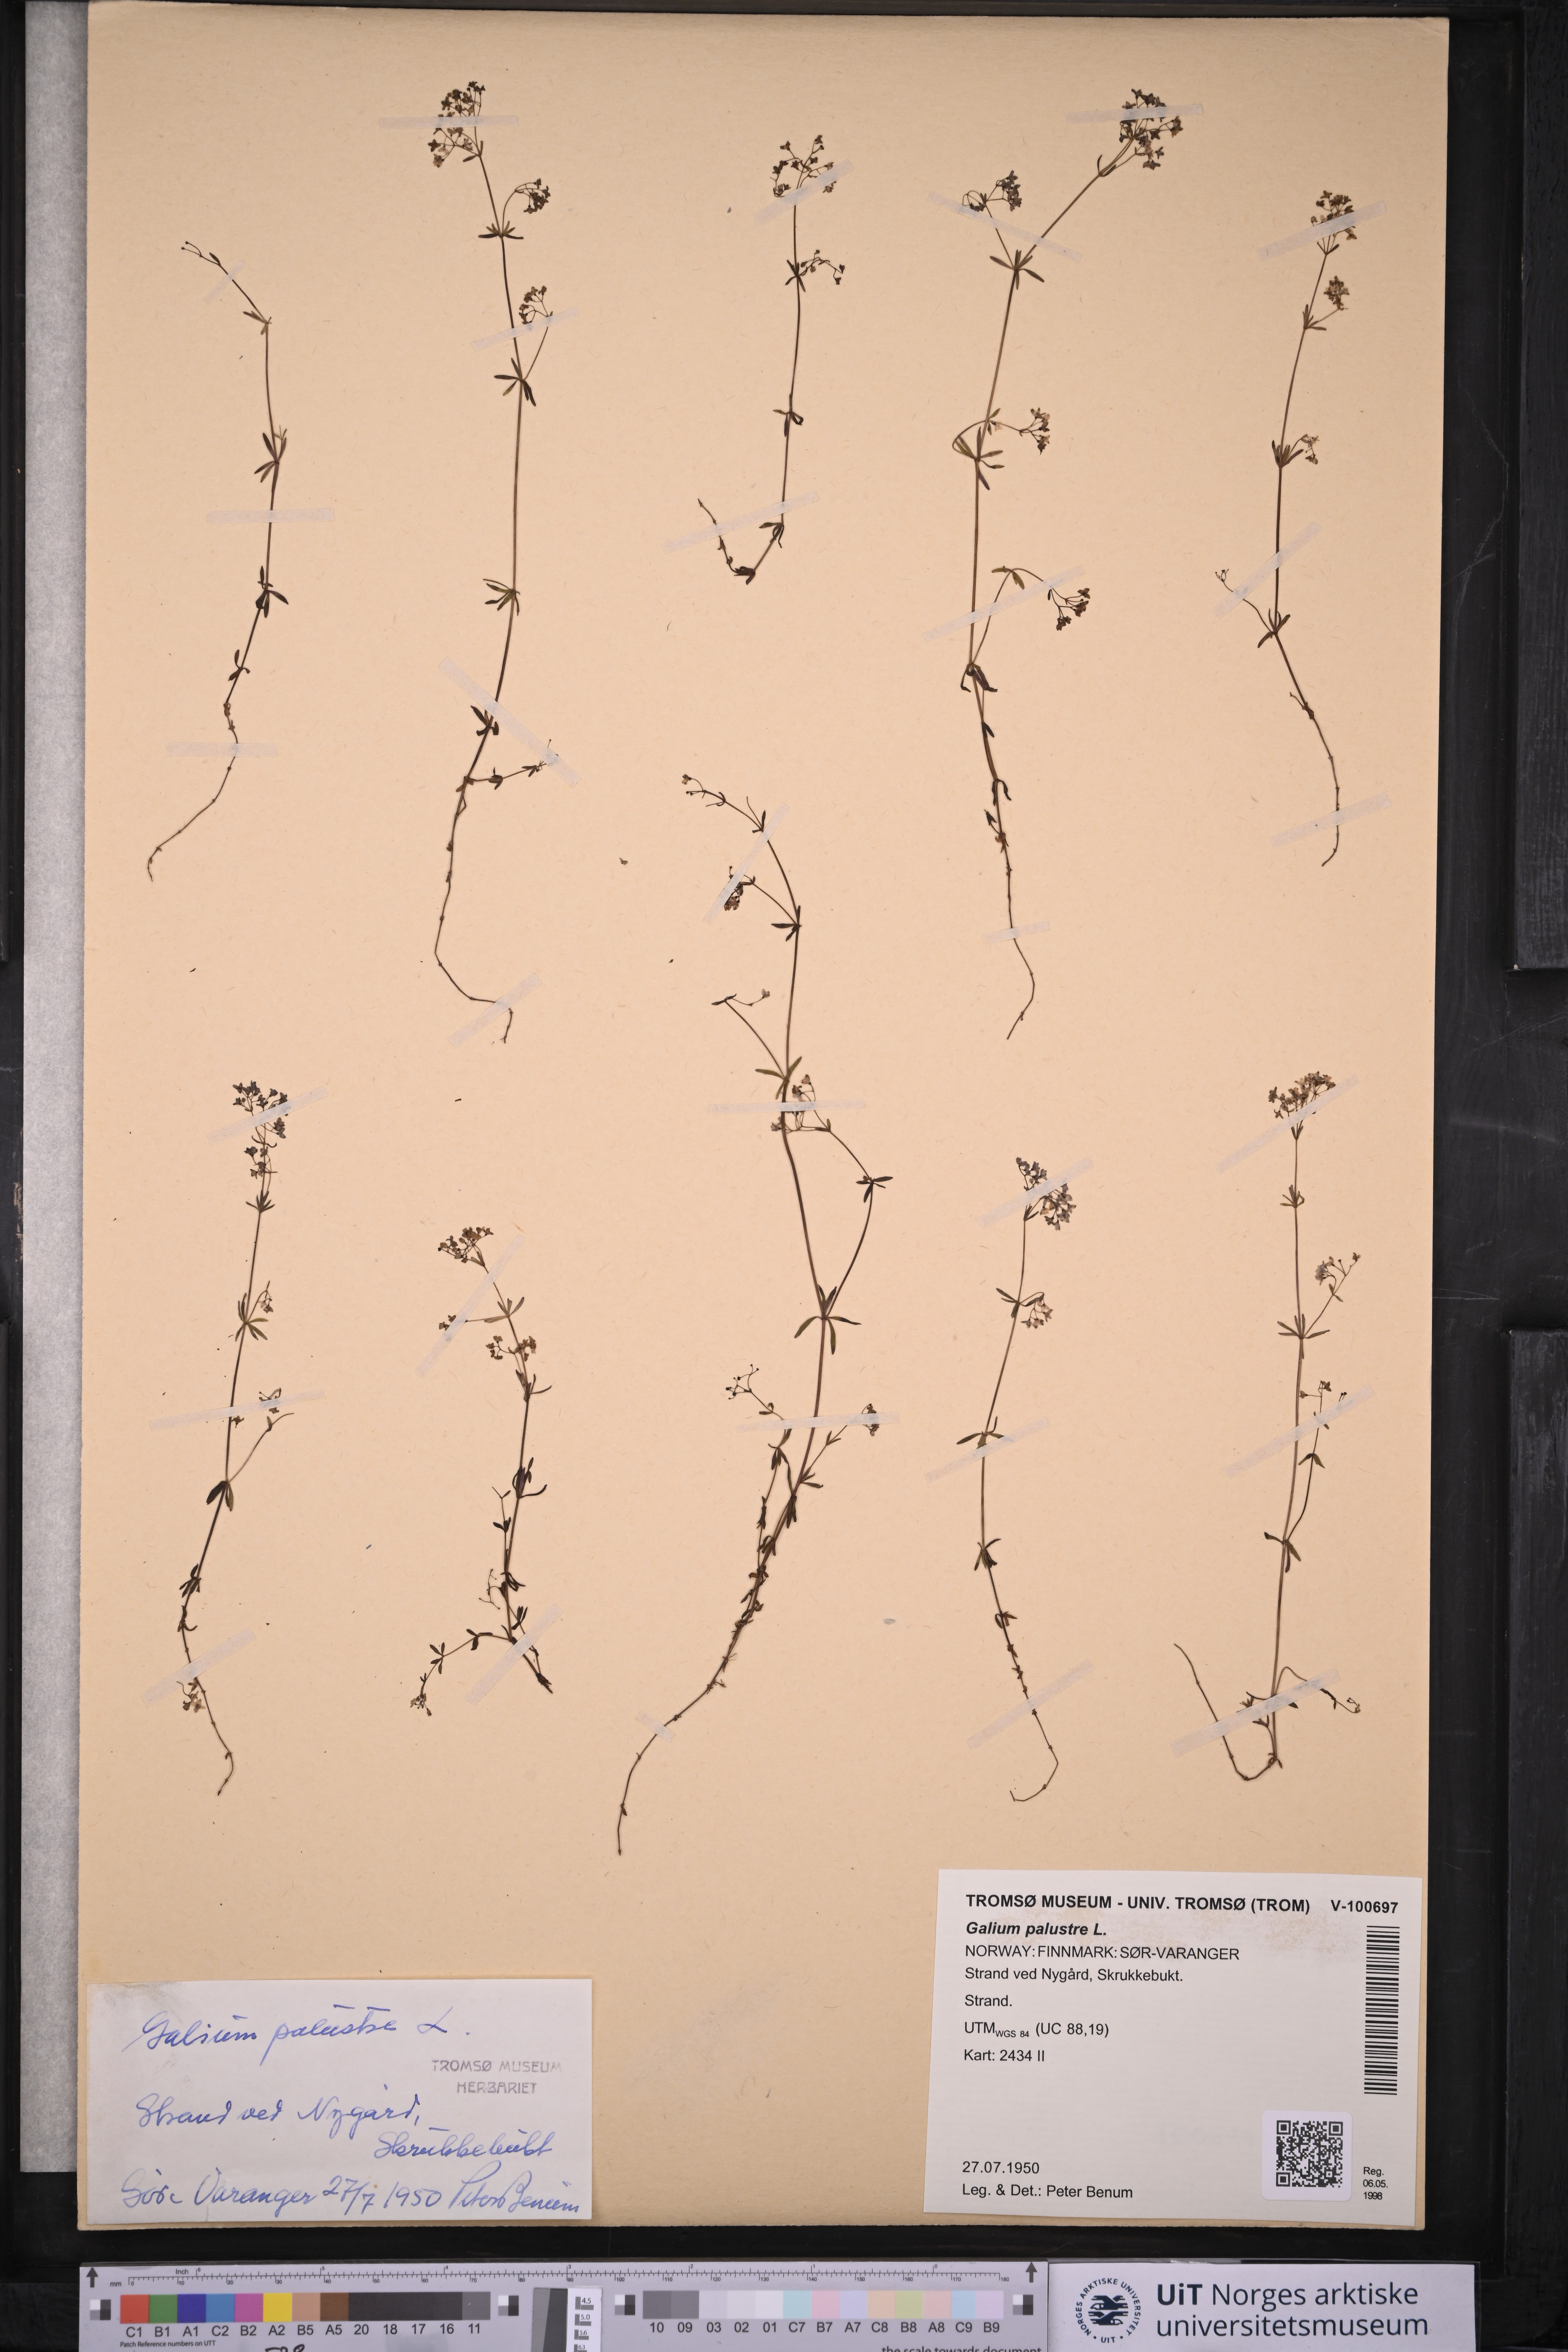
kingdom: Plantae
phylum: Tracheophyta
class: Magnoliopsida
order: Gentianales
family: Rubiaceae
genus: Galium
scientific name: Galium palustre
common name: Common marsh-bedstraw
